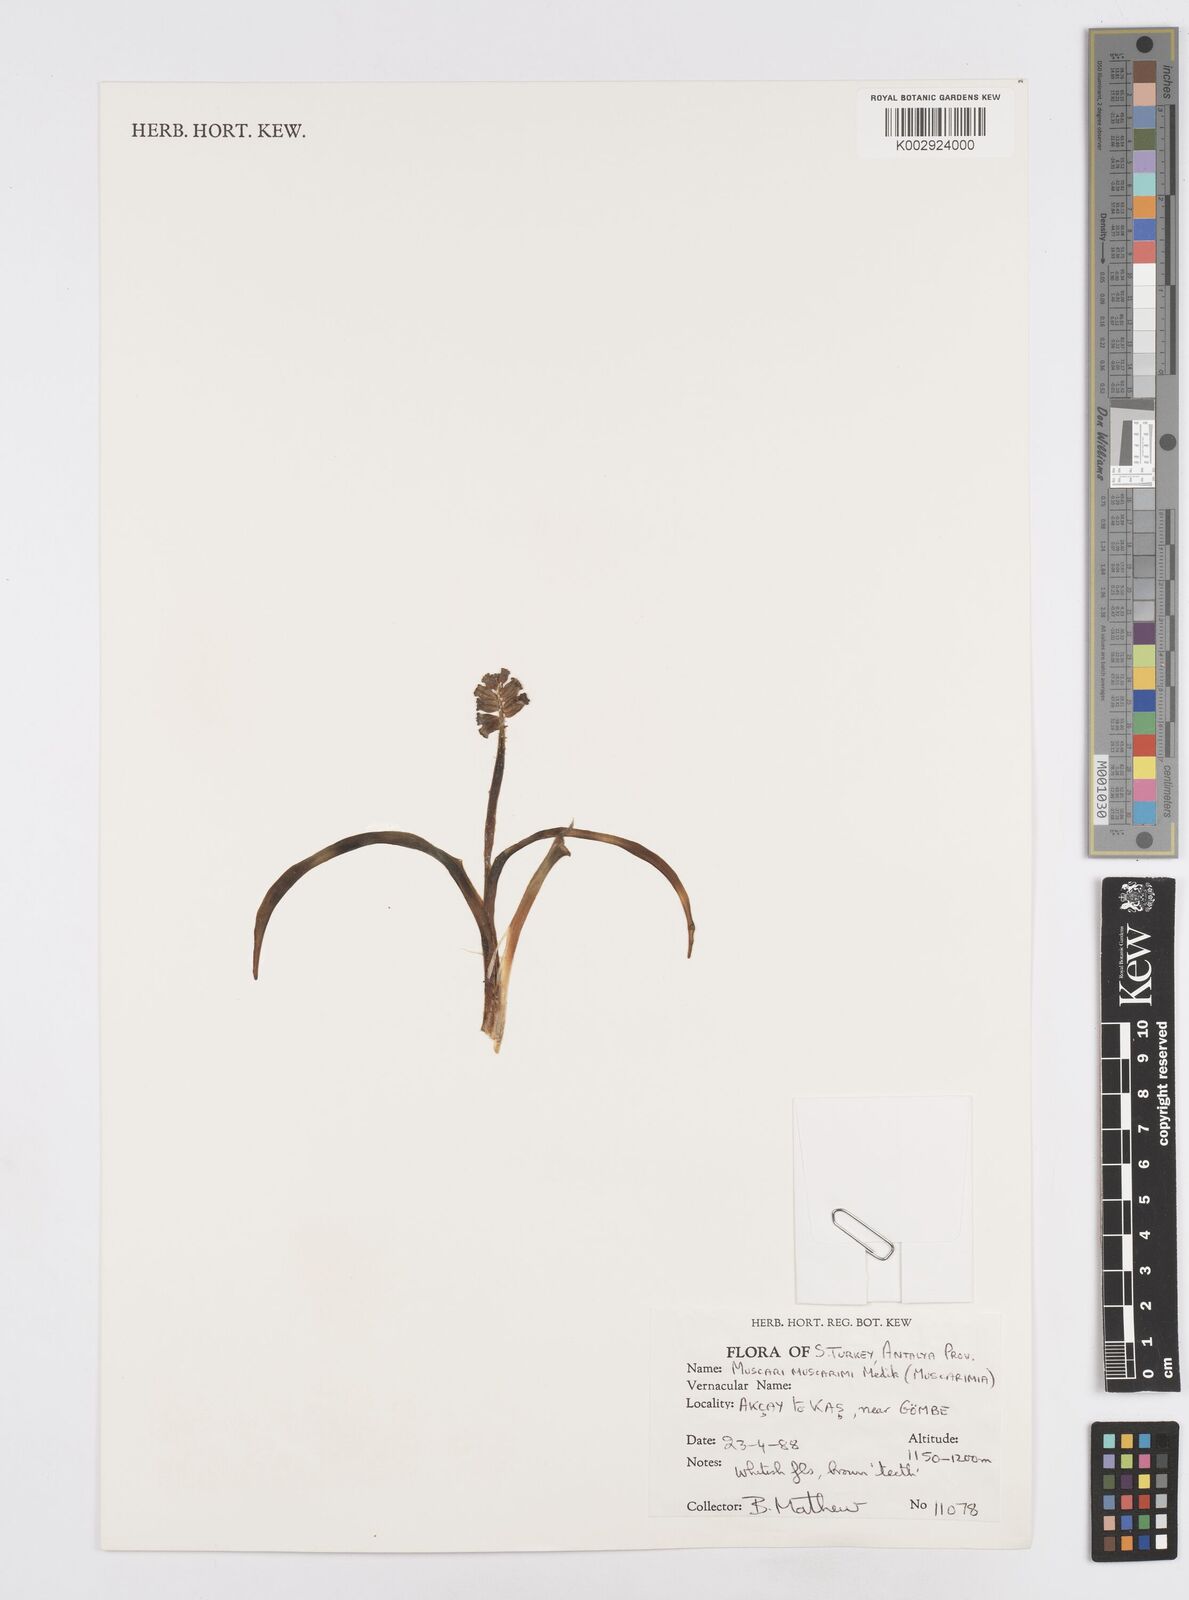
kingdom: Plantae
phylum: Tracheophyta
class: Liliopsida
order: Asparagales
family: Asparagaceae
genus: Muscari
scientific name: Muscari
